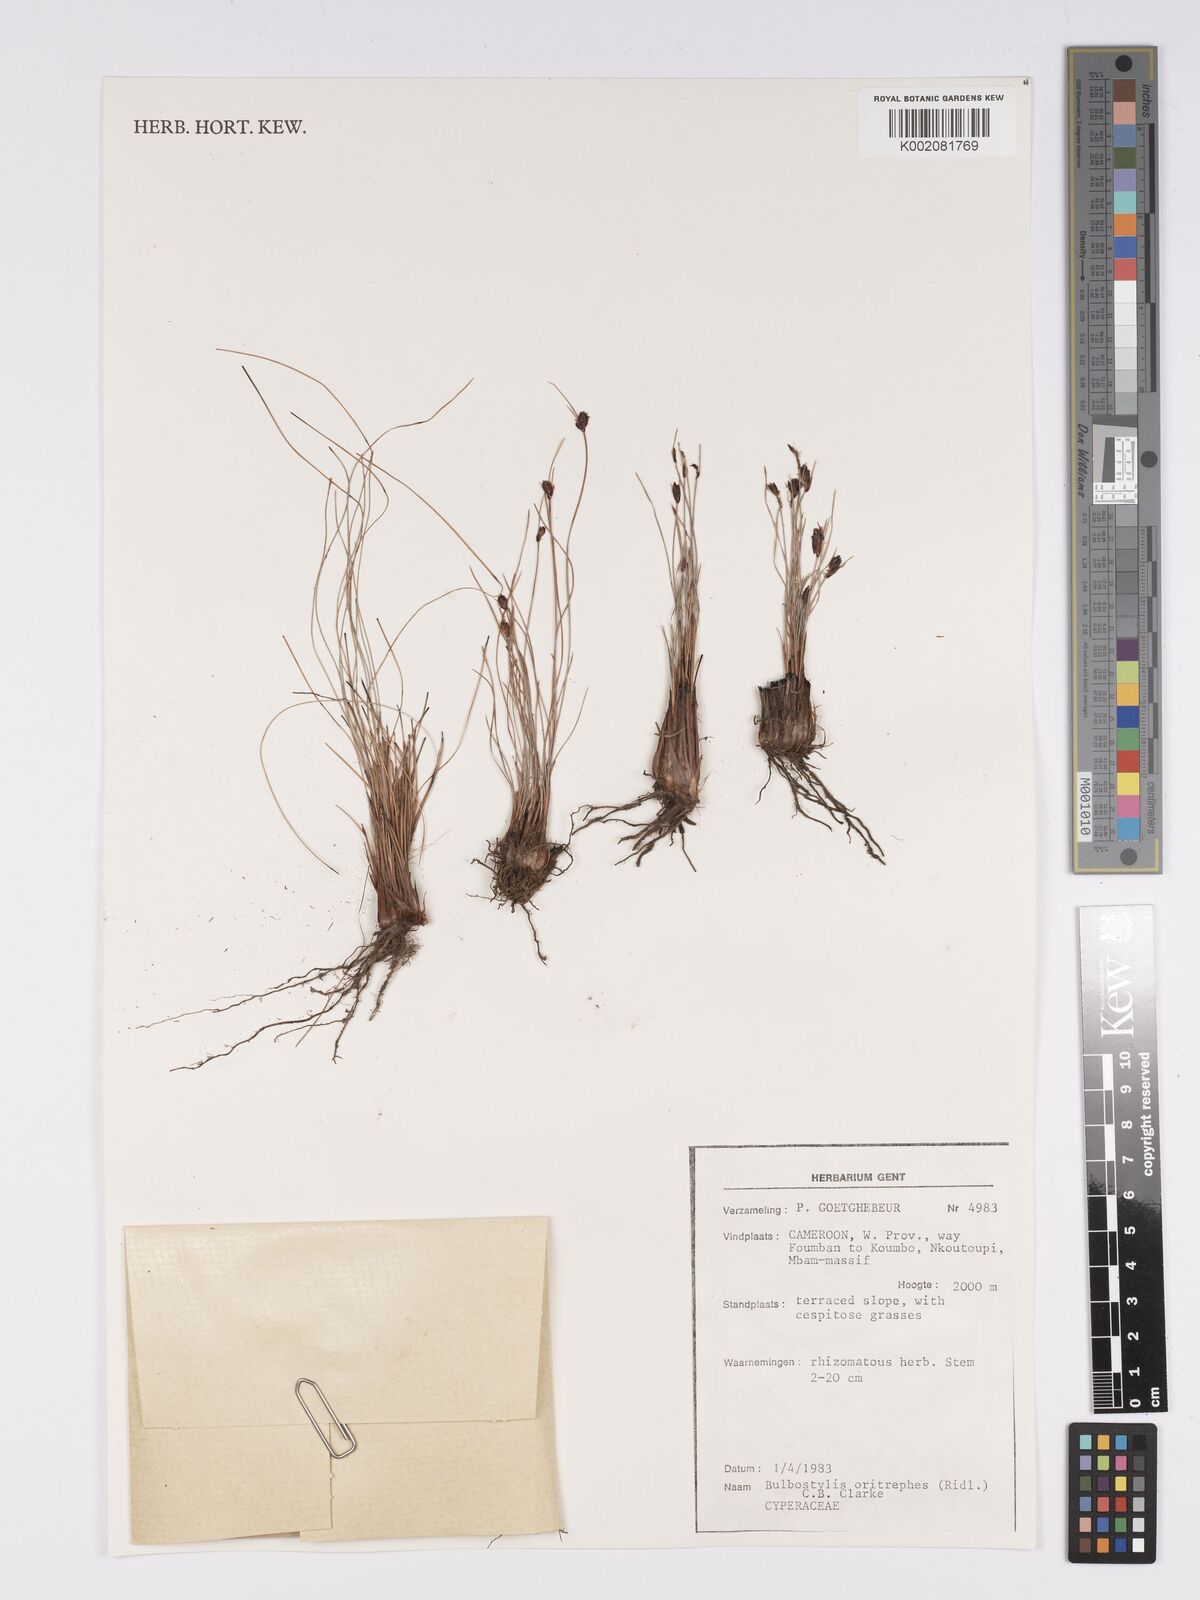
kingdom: Plantae
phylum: Tracheophyta
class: Liliopsida
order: Poales
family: Cyperaceae
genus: Bulbostylis
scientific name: Bulbostylis oritrephes
